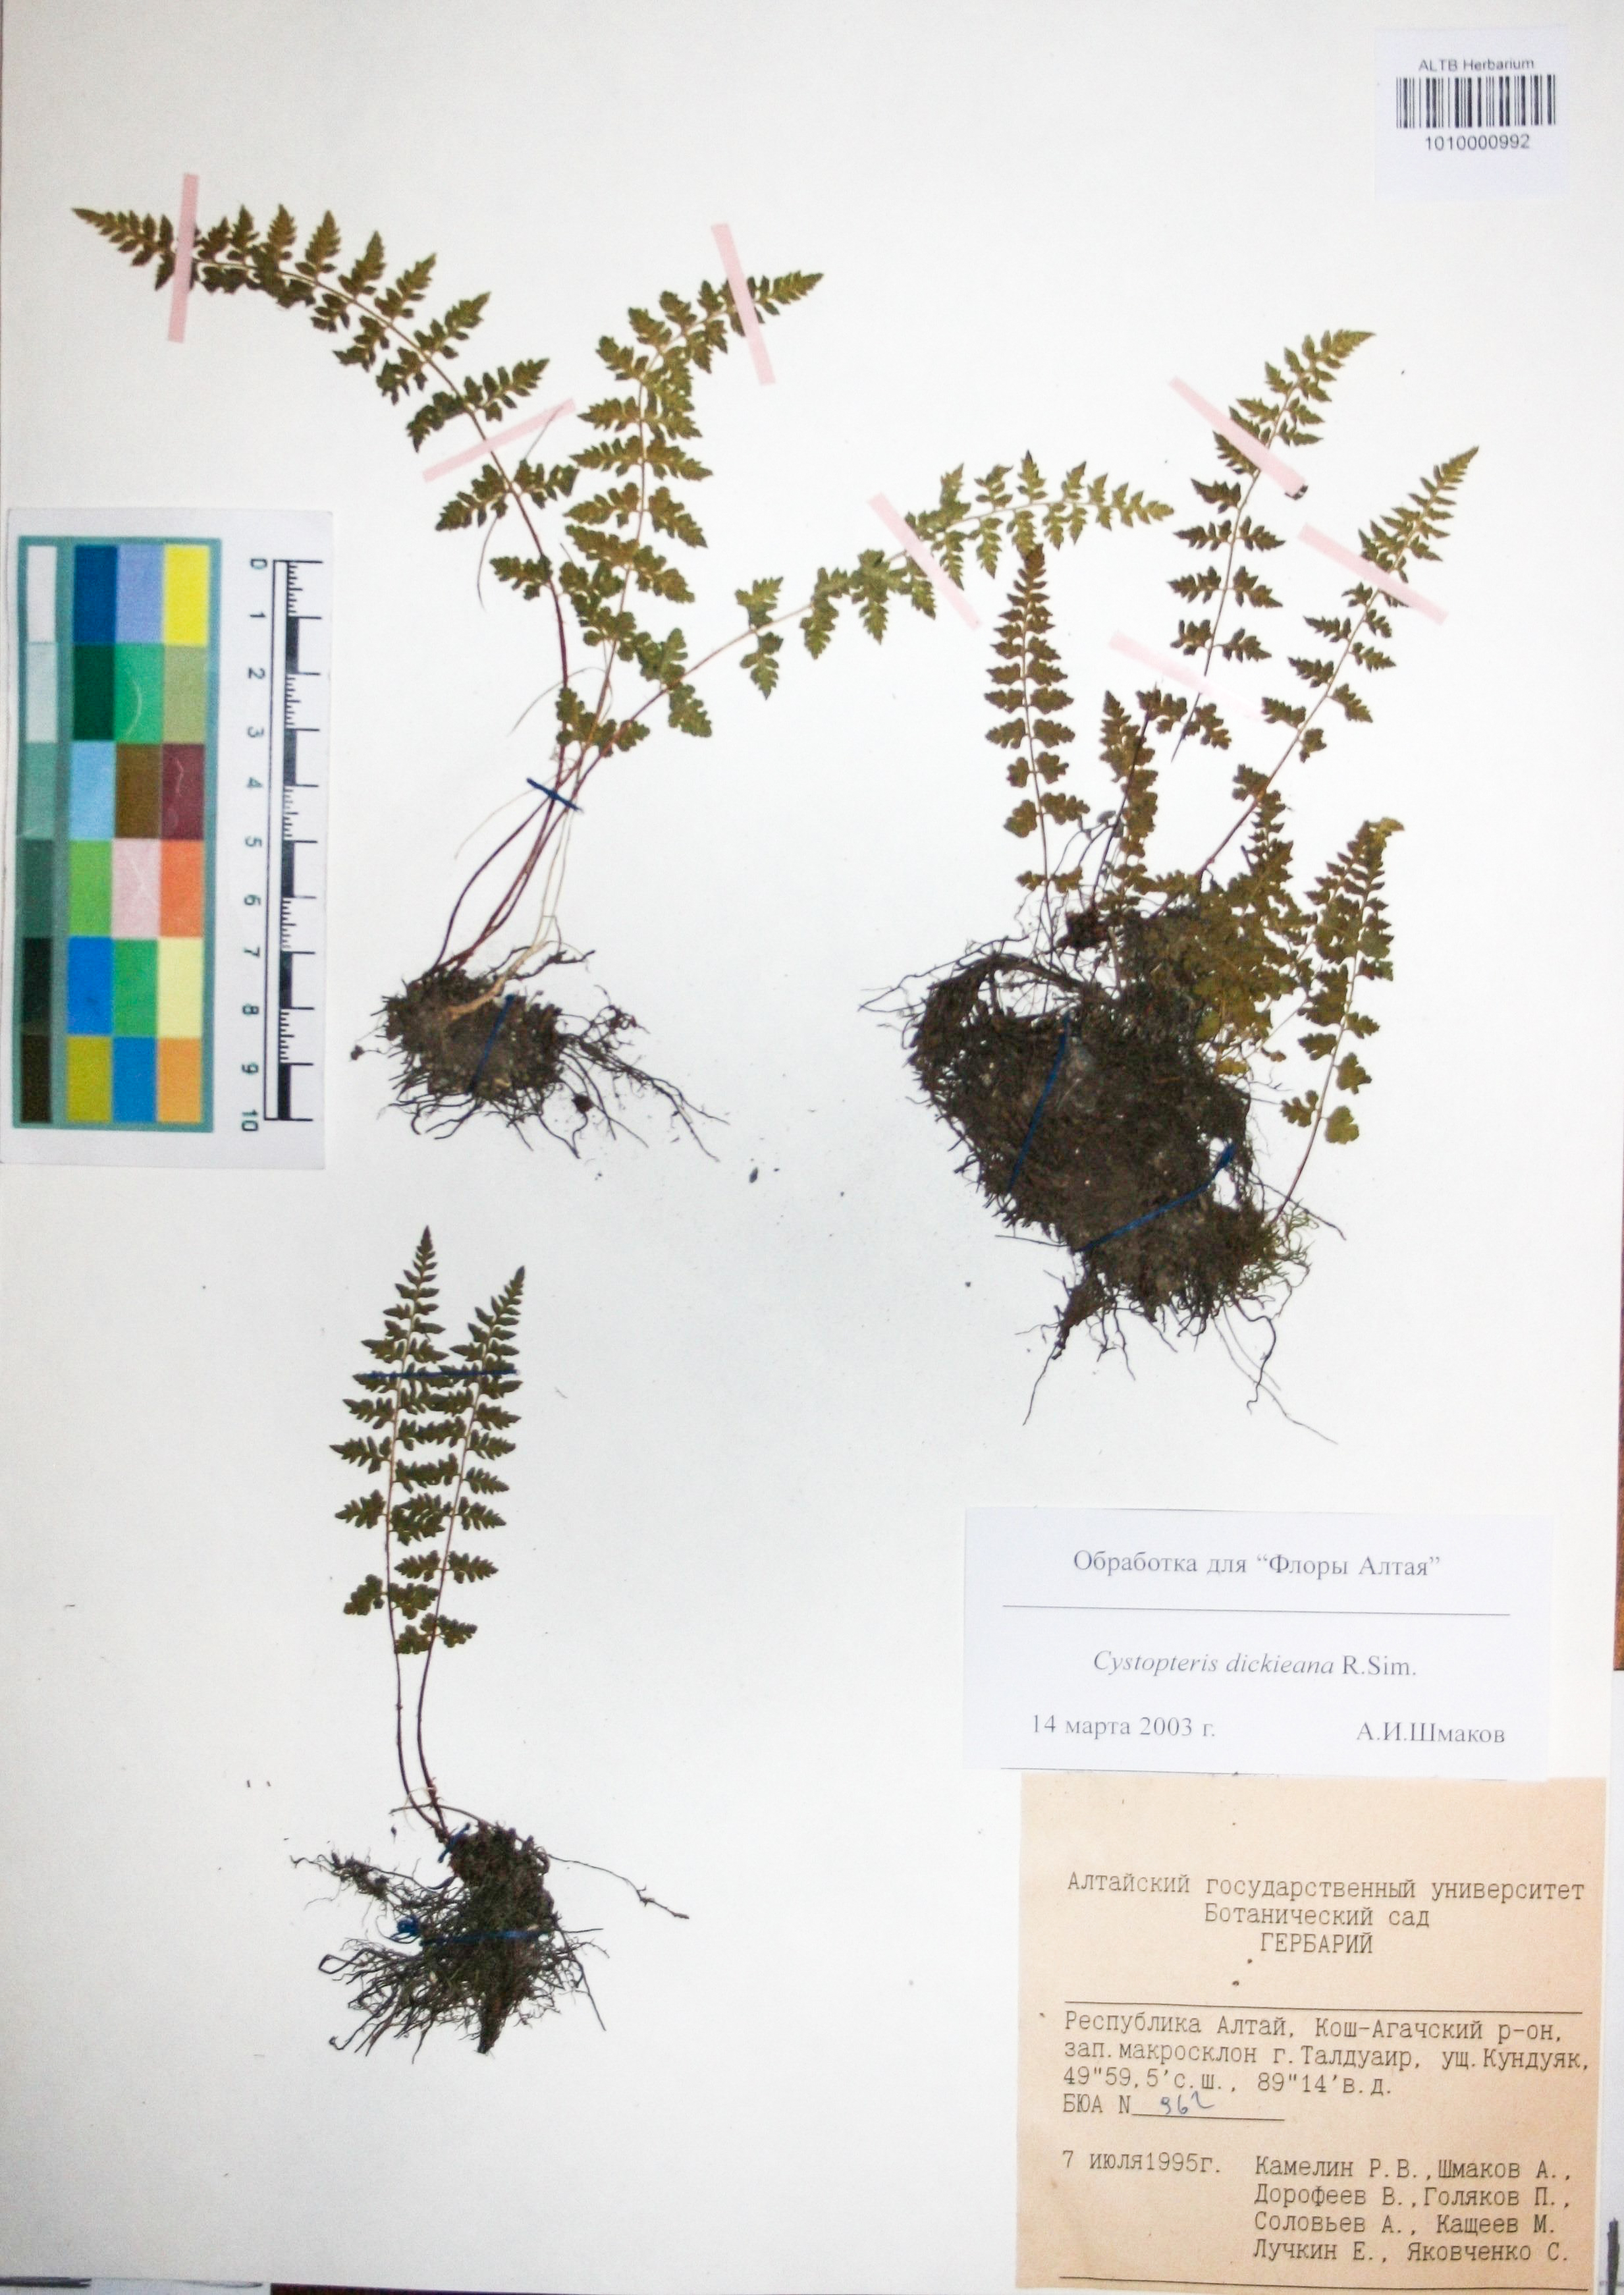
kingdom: Plantae
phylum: Tracheophyta
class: Polypodiopsida
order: Polypodiales
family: Cystopteridaceae
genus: Cystopteris
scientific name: Cystopteris dickieana
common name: Dickie's bladder-fern
